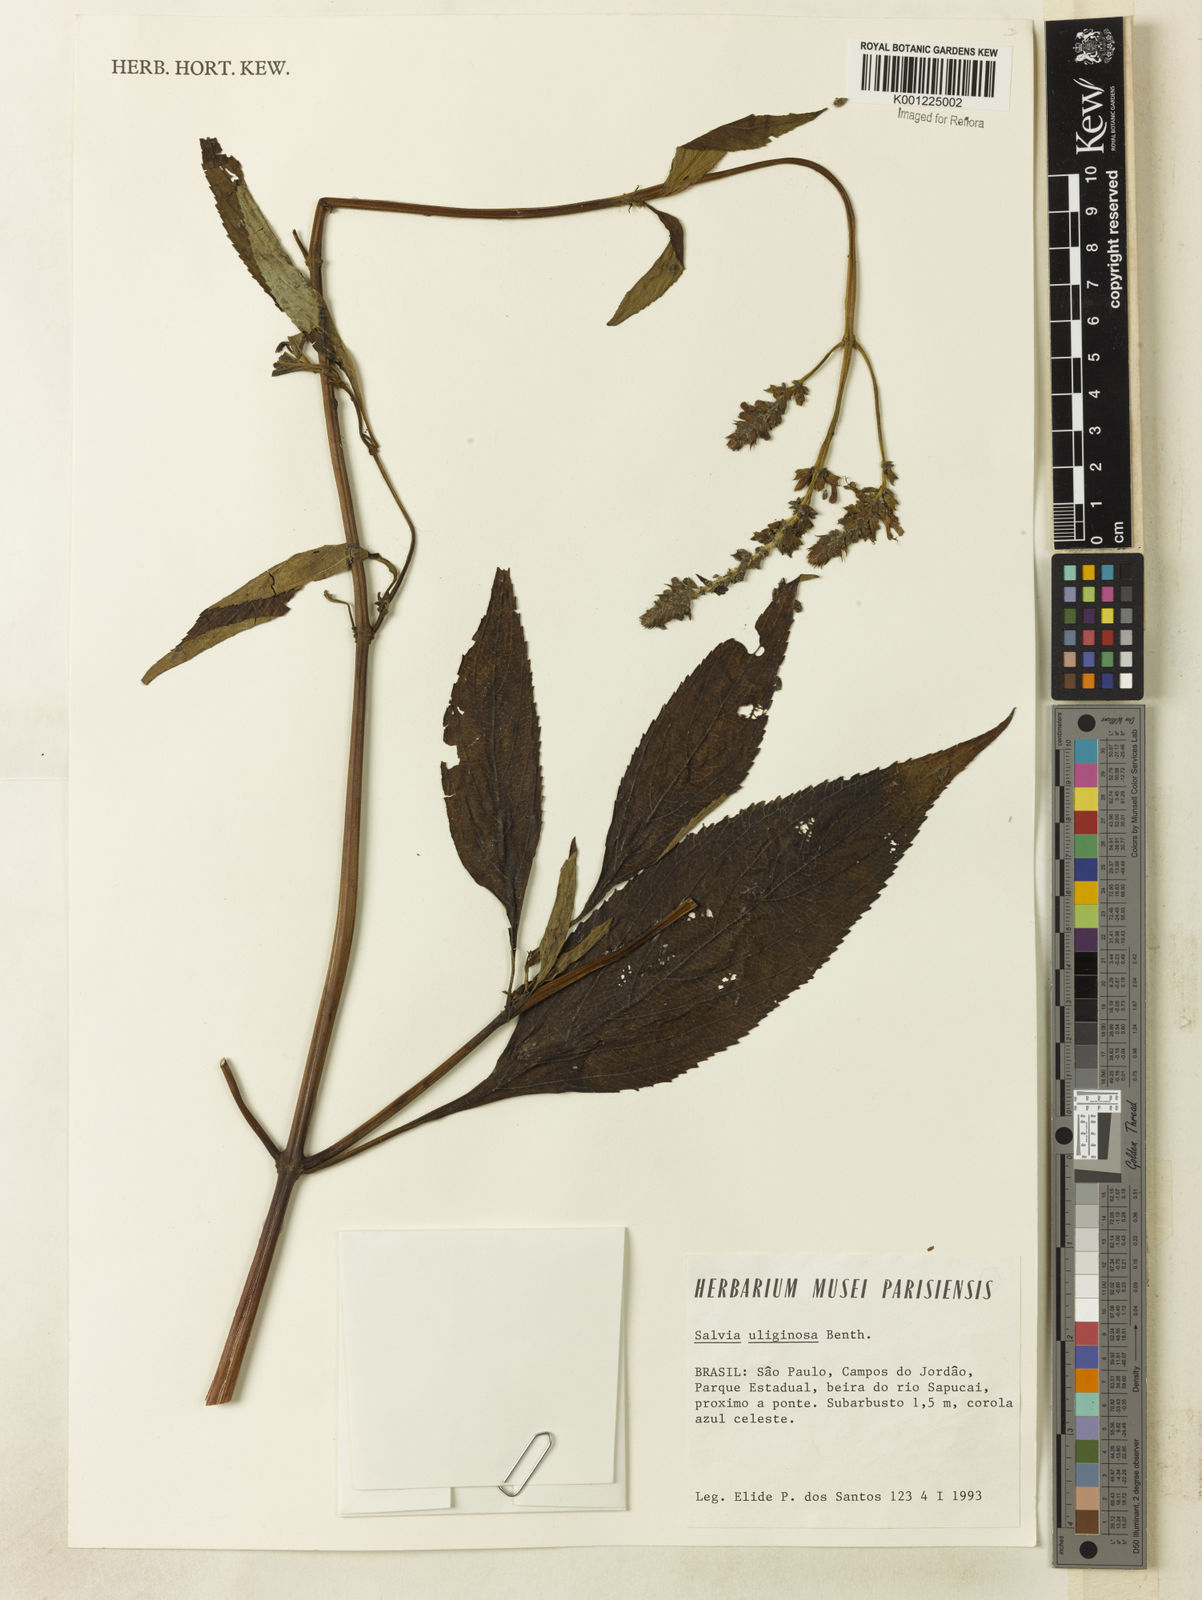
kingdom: Plantae
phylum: Tracheophyta
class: Magnoliopsida
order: Lamiales
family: Lamiaceae
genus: Salvia
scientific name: Salvia uliginosa
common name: Bog sage
